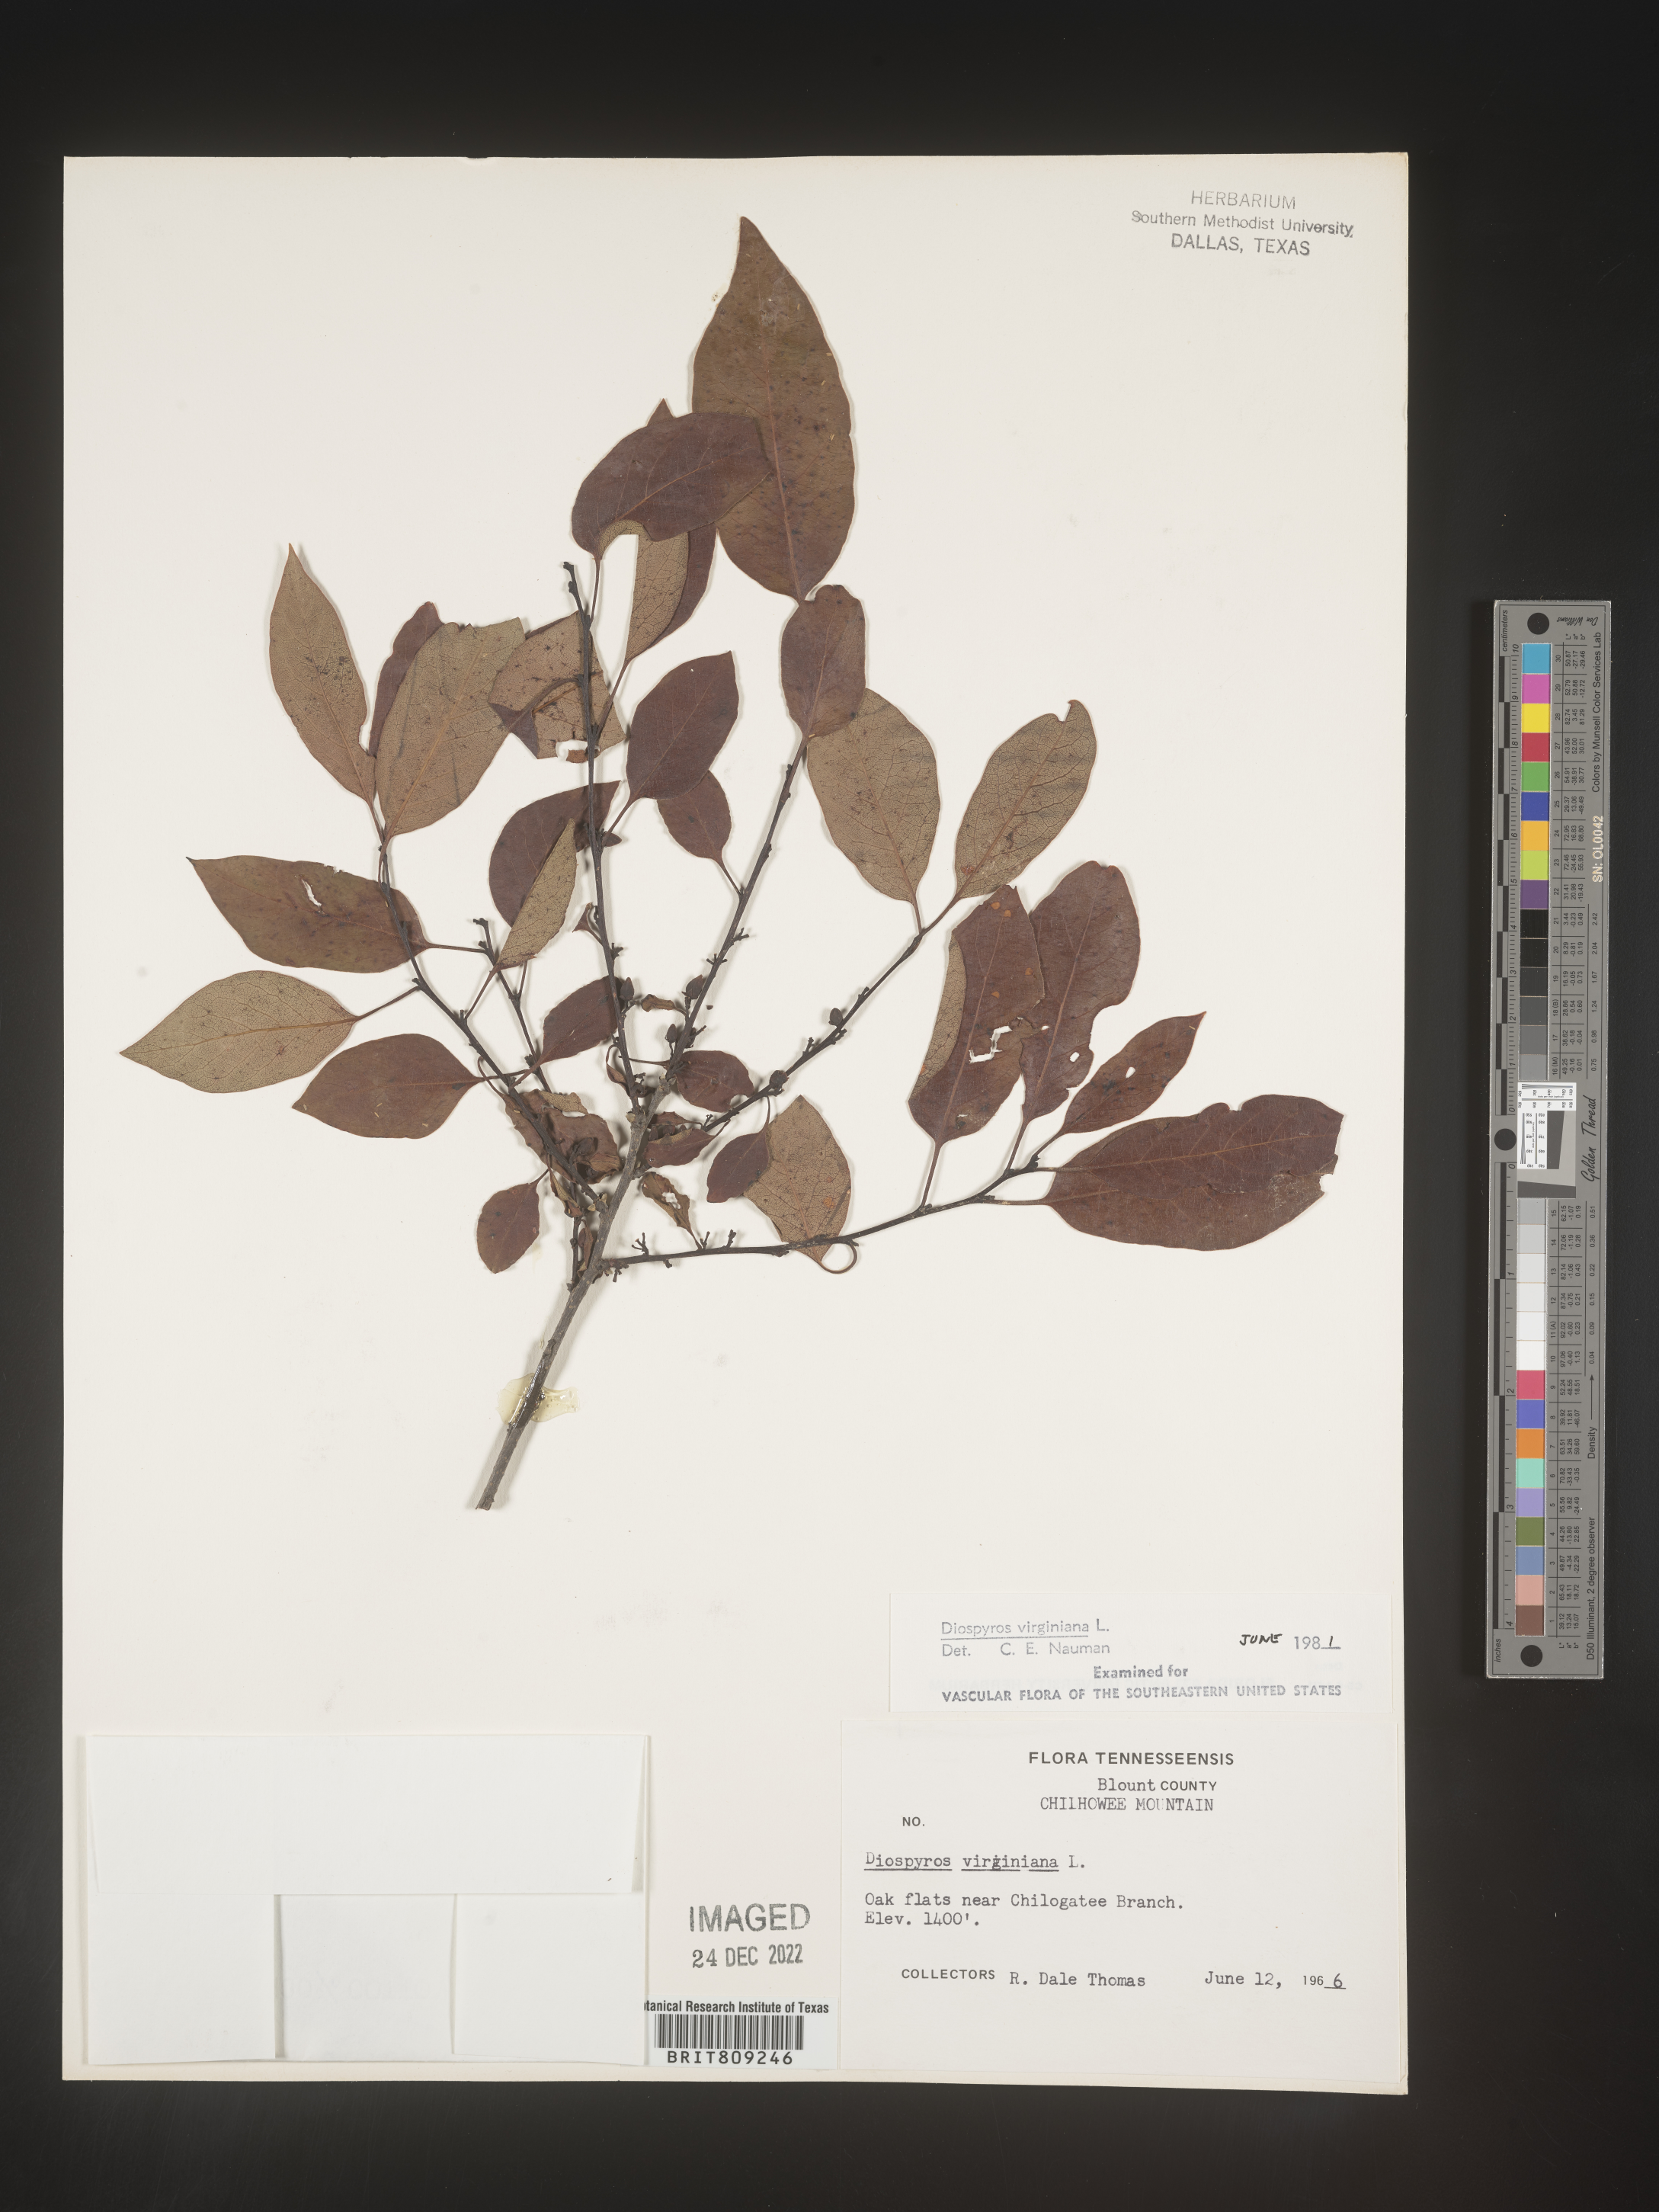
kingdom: Plantae
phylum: Tracheophyta
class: Magnoliopsida
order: Ericales
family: Ebenaceae
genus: Diospyros
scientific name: Diospyros virginiana
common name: Persimmon
